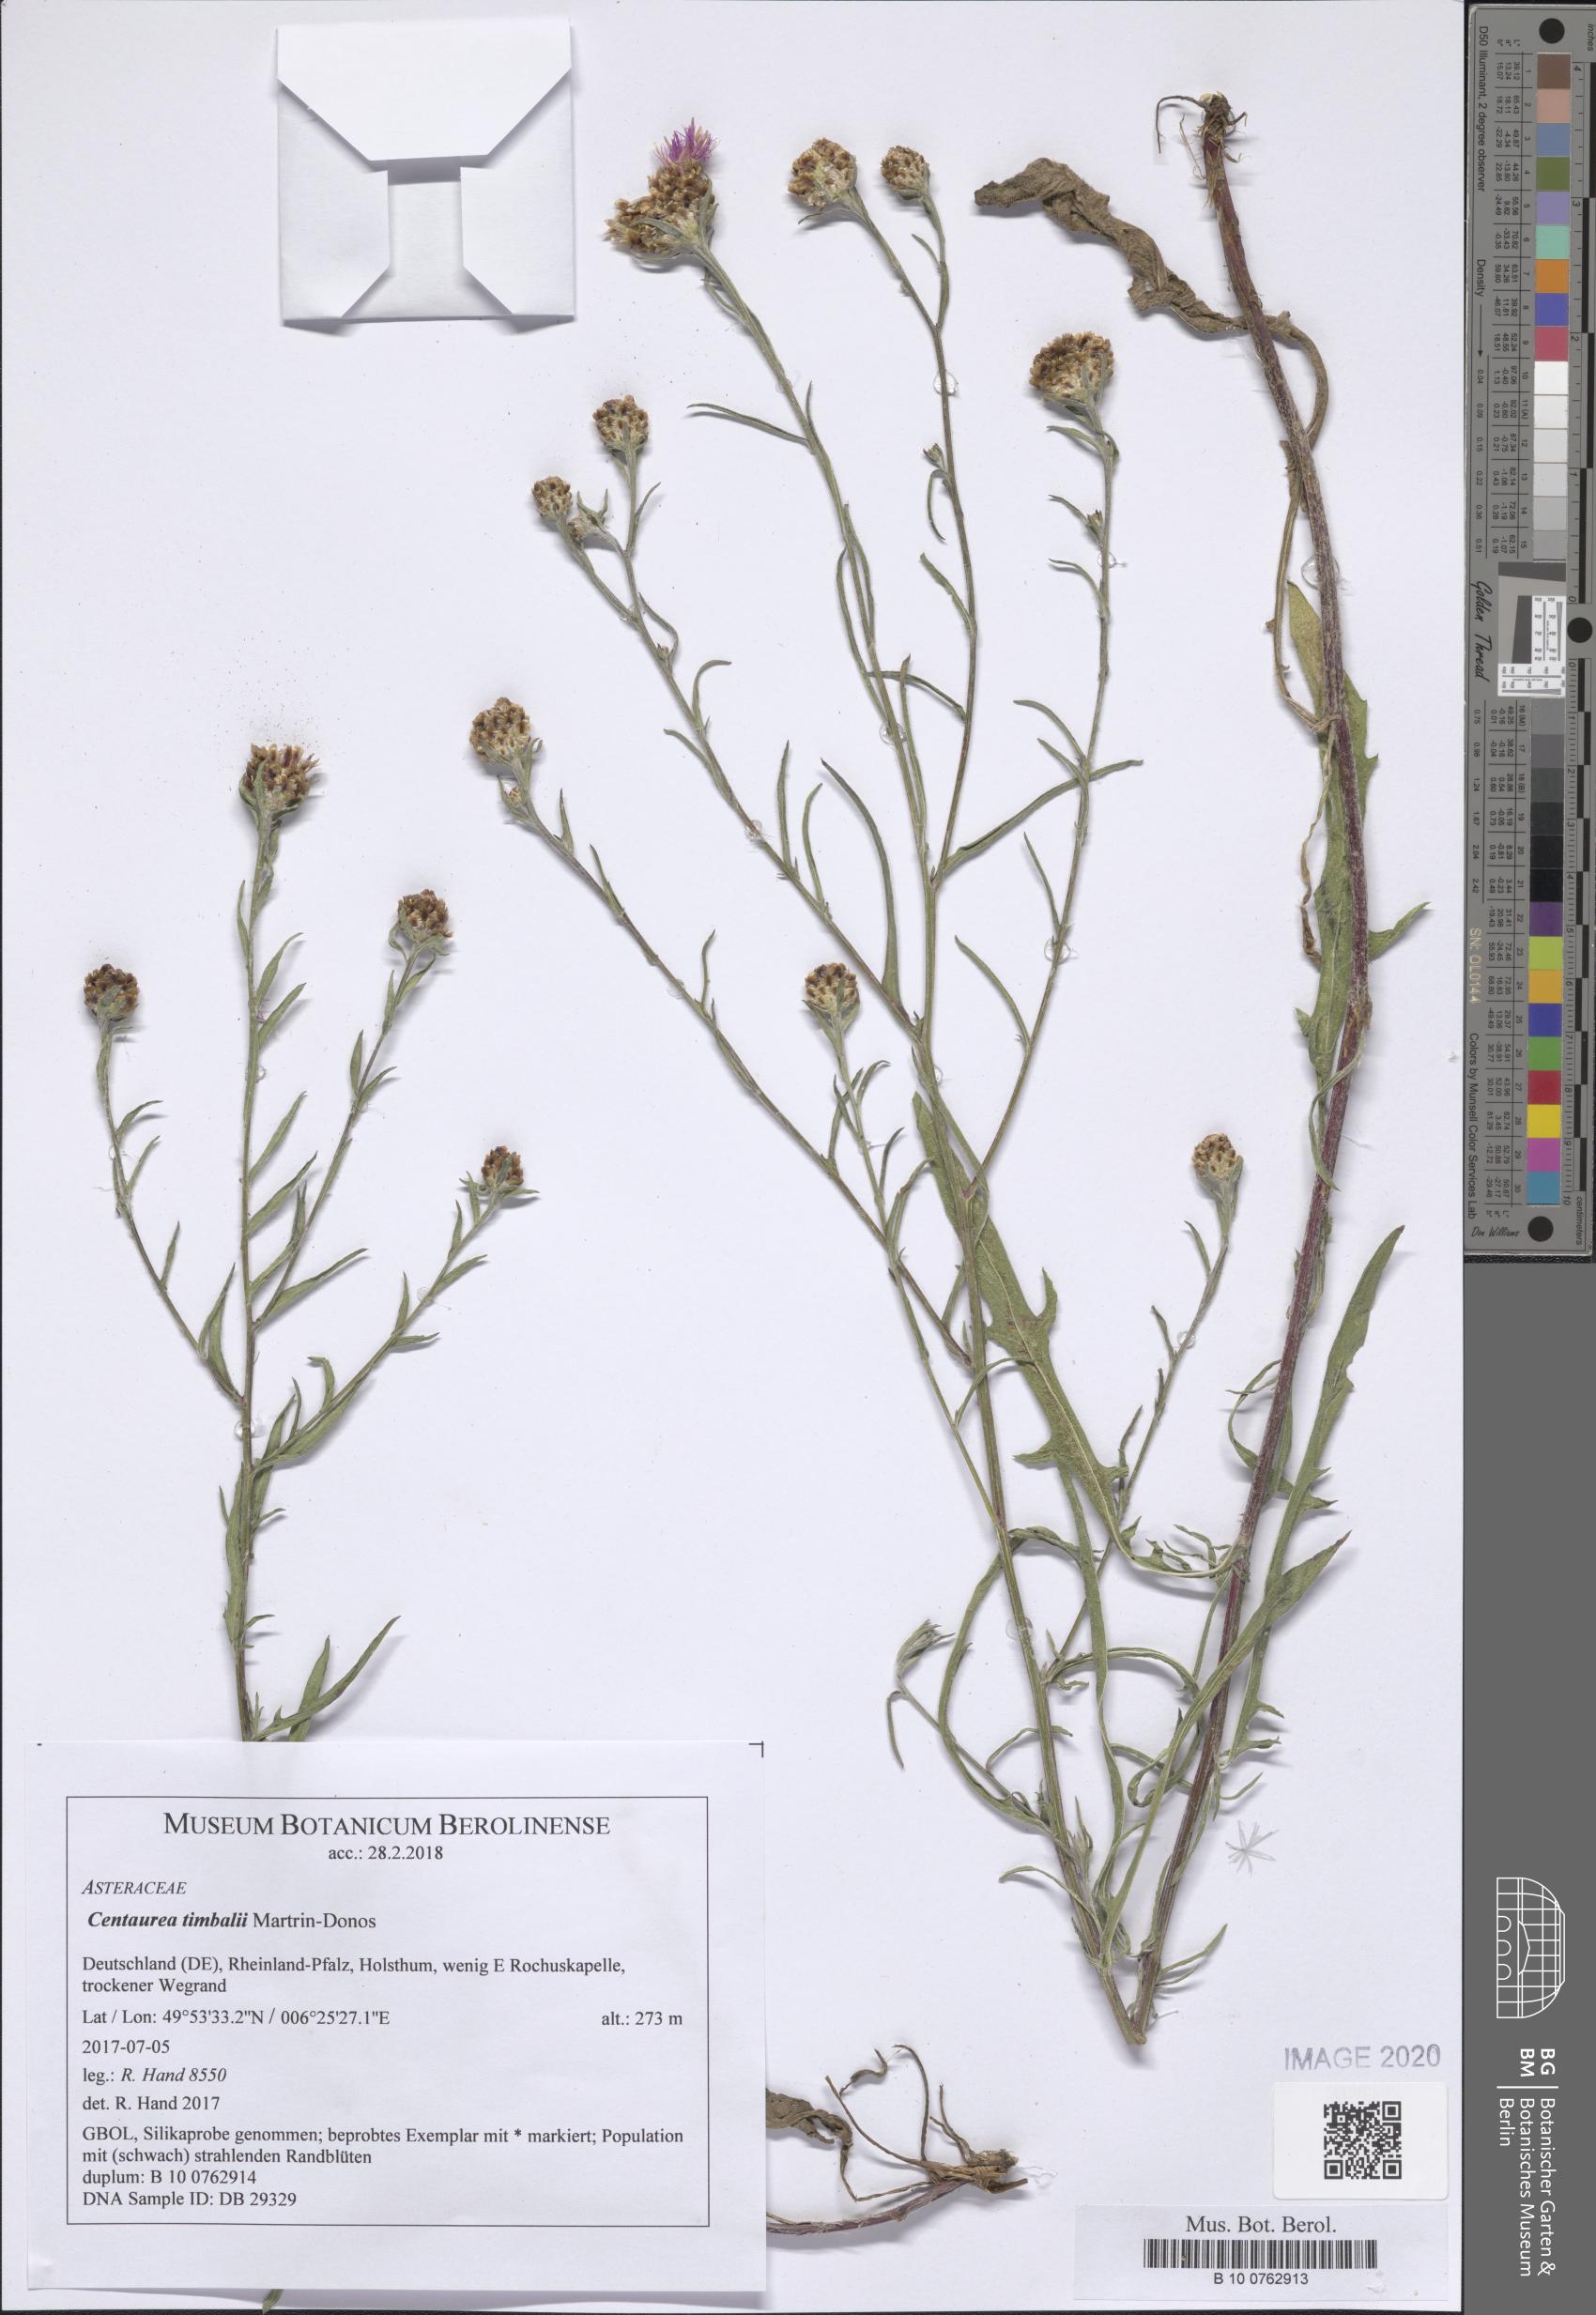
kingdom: Plantae
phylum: Tracheophyta
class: Magnoliopsida
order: Asterales
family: Asteraceae
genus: Centaurea
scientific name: Centaurea timbalii
